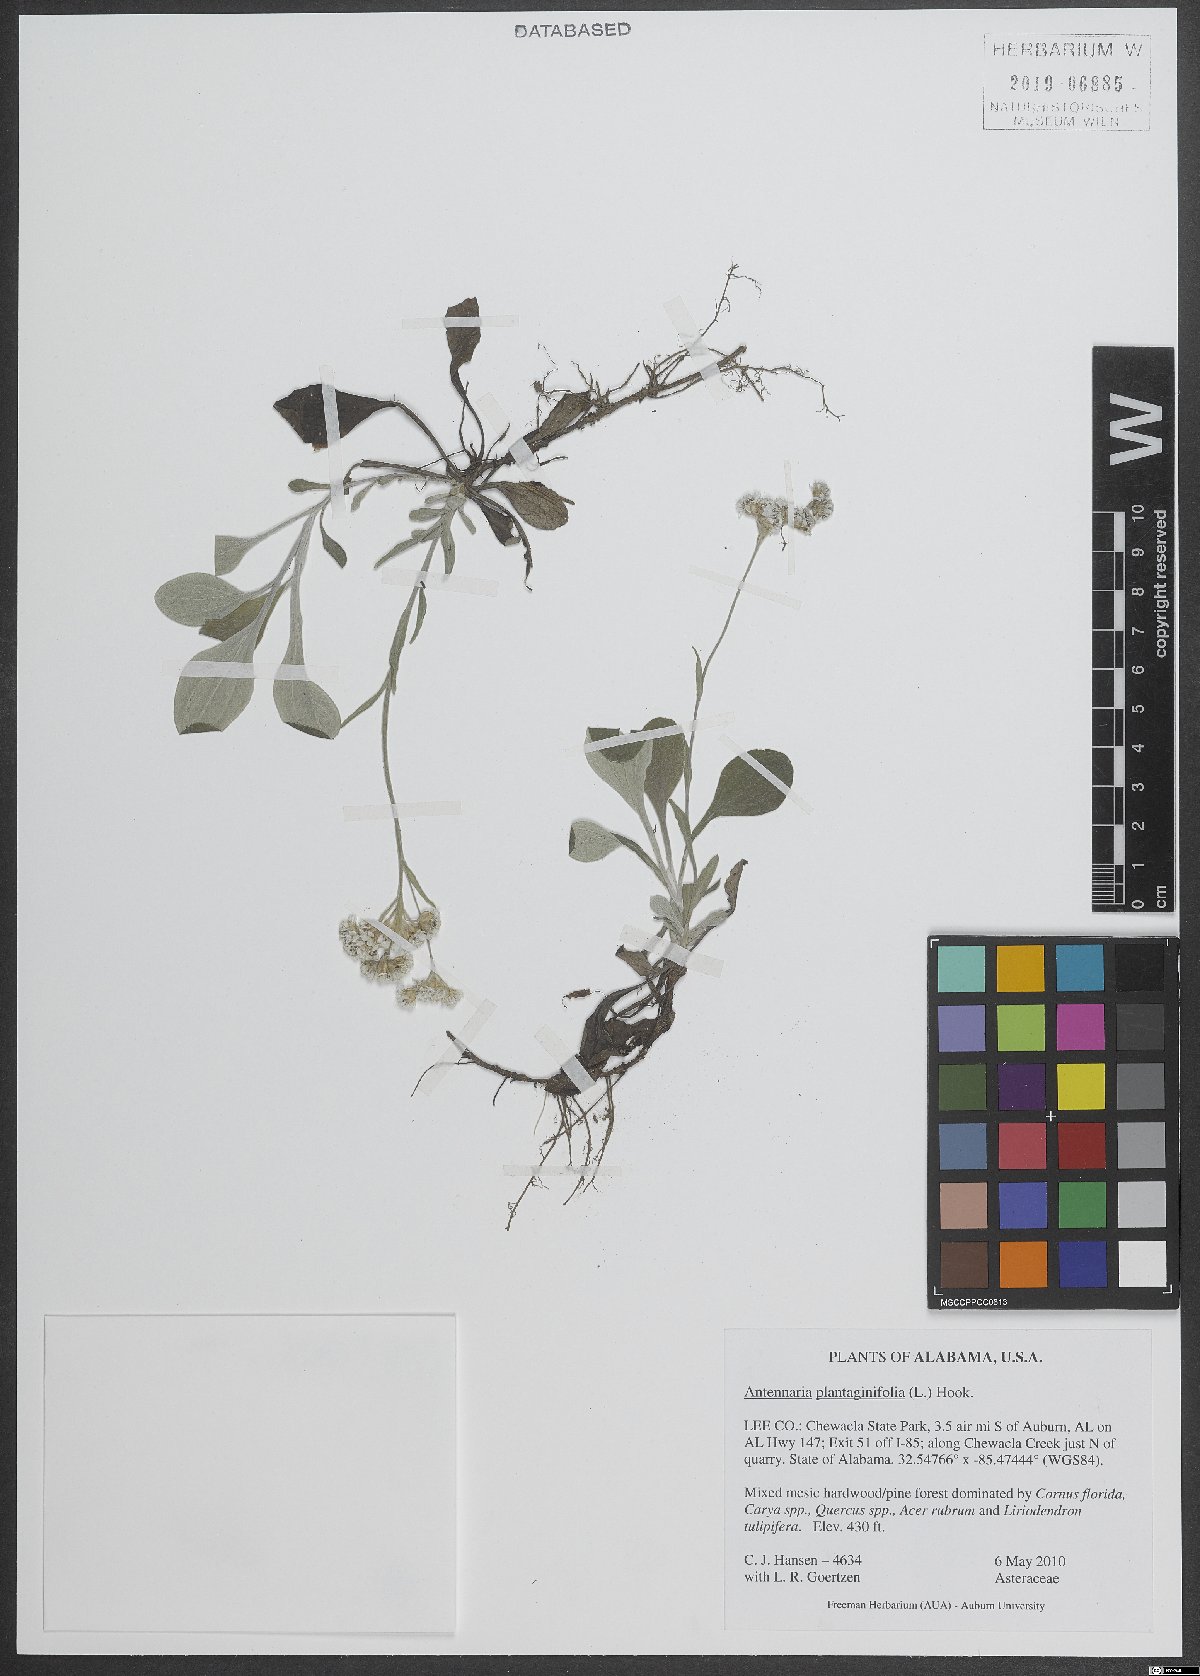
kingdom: Plantae
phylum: Tracheophyta
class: Magnoliopsida
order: Asterales
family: Asteraceae
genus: Antennaria
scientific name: Antennaria plantaginifolia
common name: Plantain-leaved pussytoes
